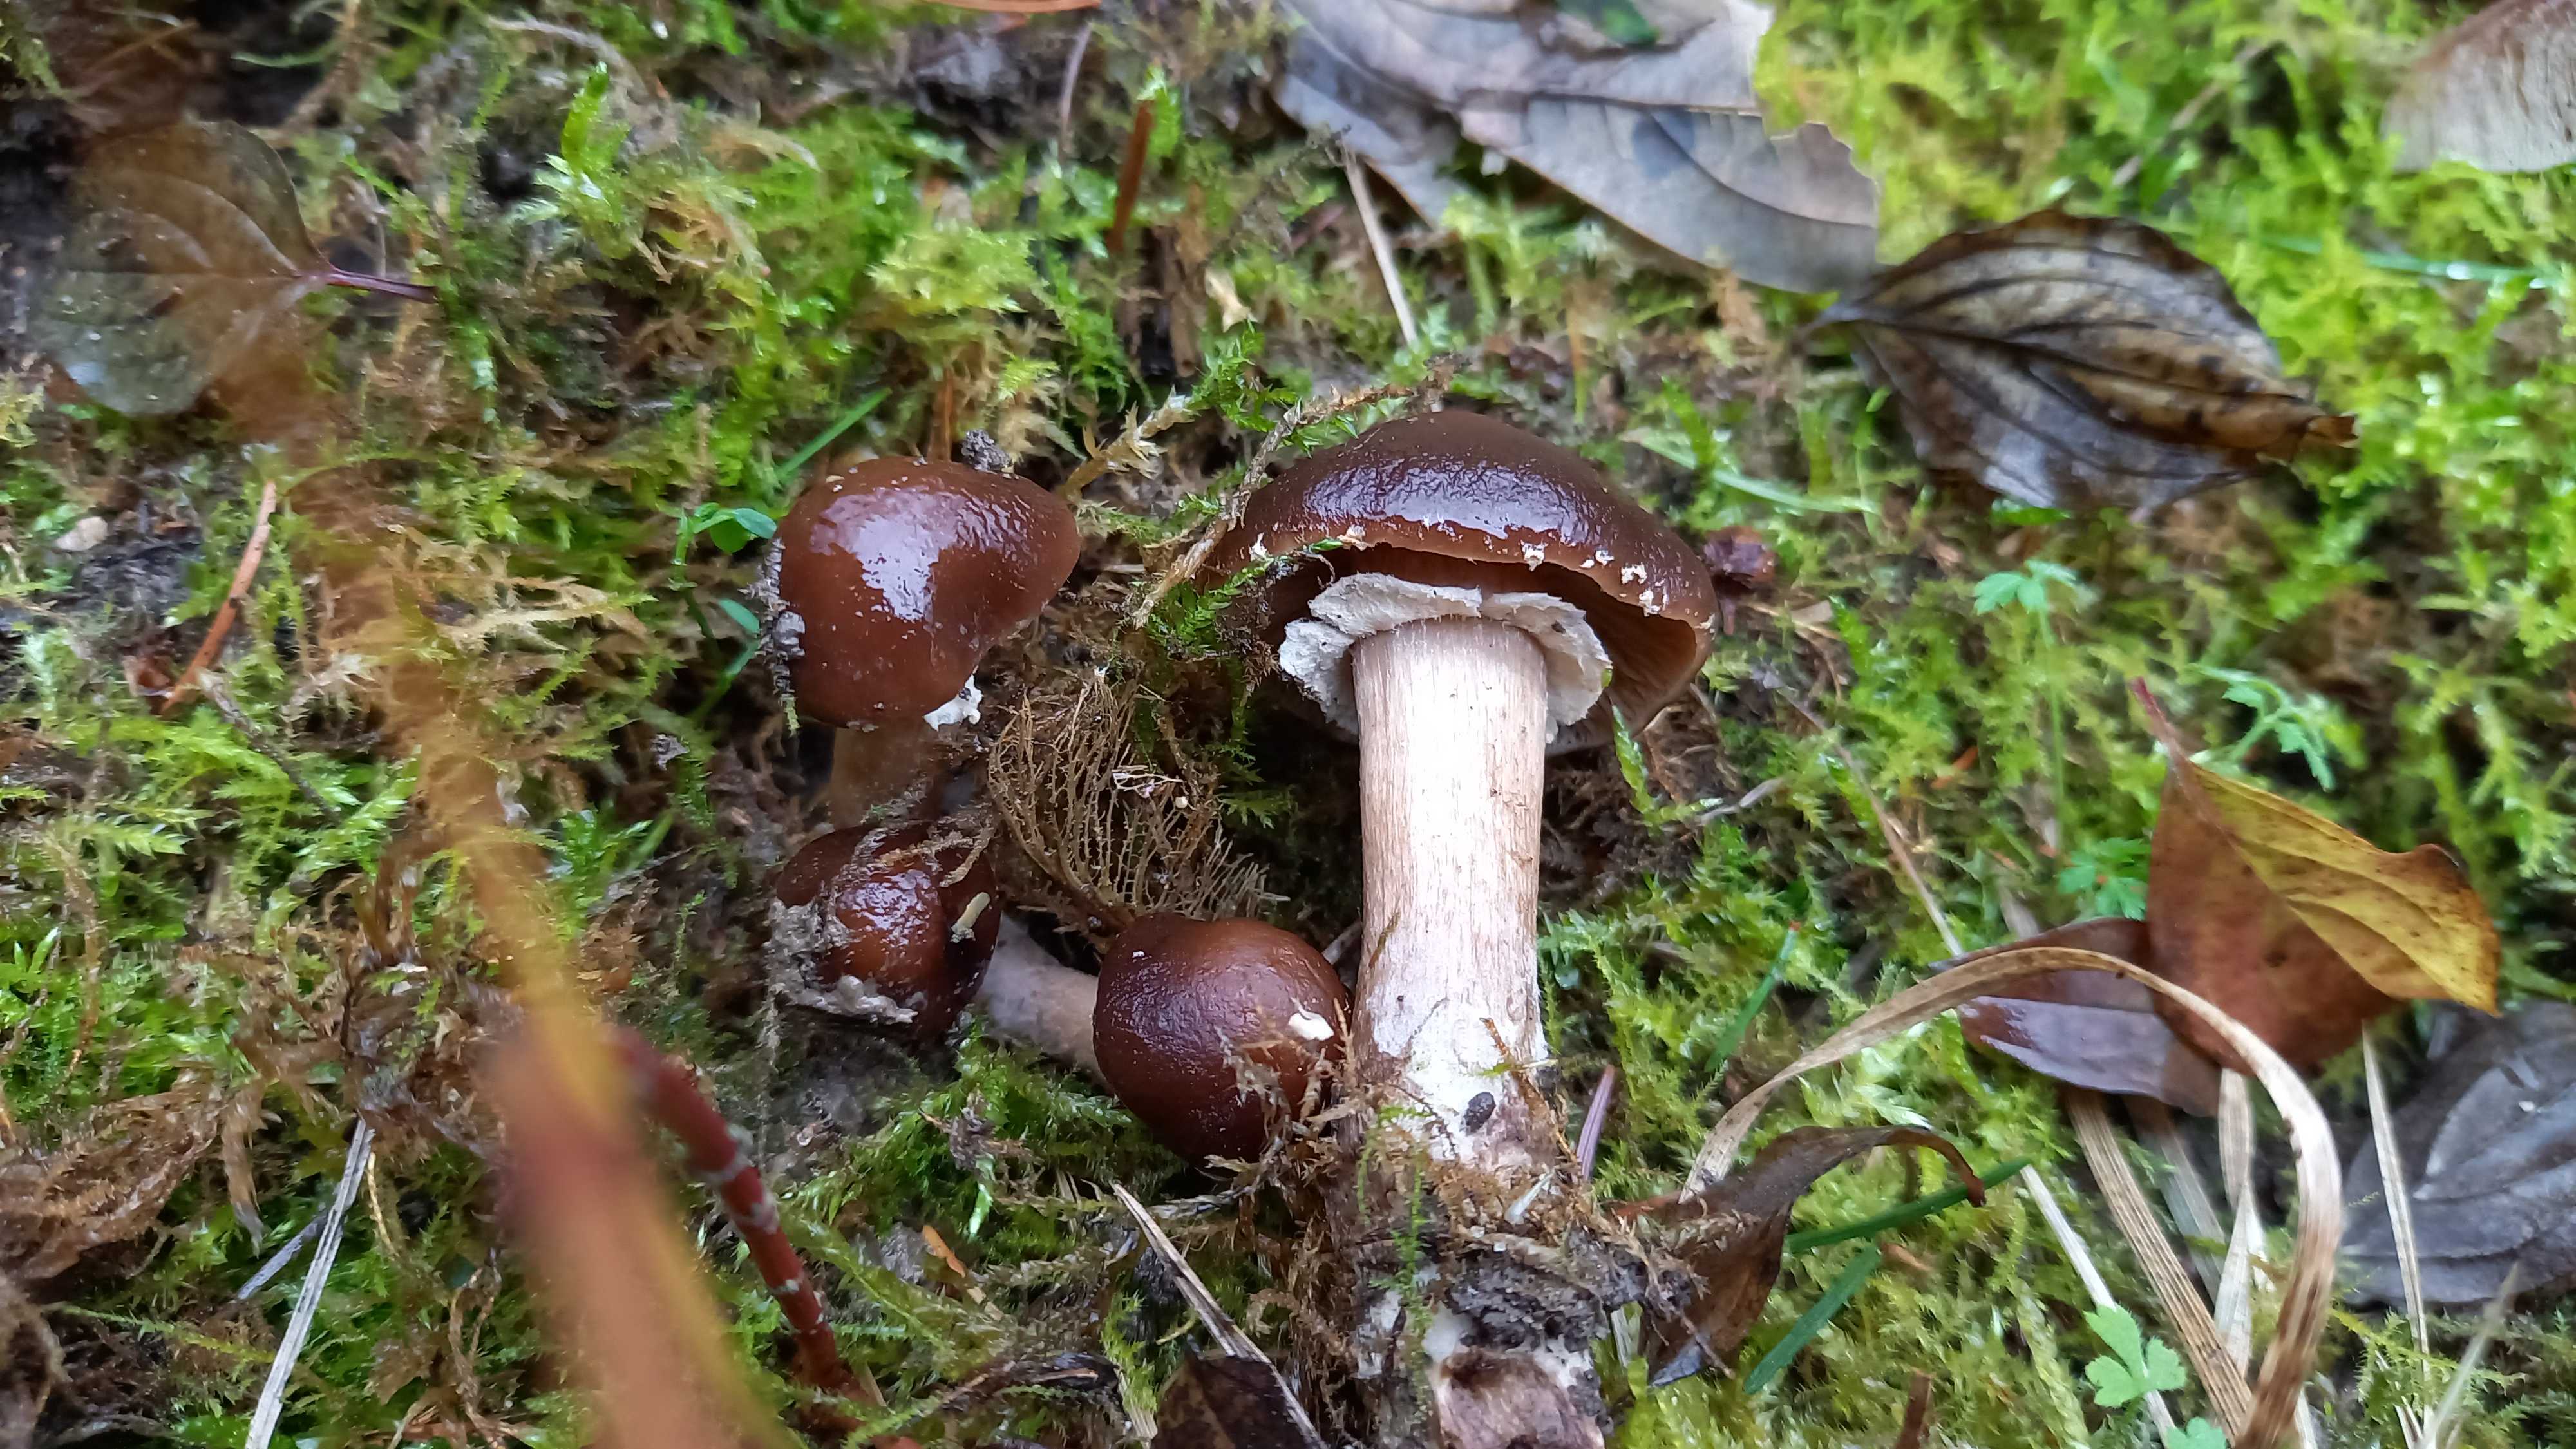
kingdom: Fungi
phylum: Basidiomycota
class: Agaricomycetes
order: Agaricales
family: Tubariaceae
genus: Cyclocybe
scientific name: Cyclocybe erebia
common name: mørk agerhat
